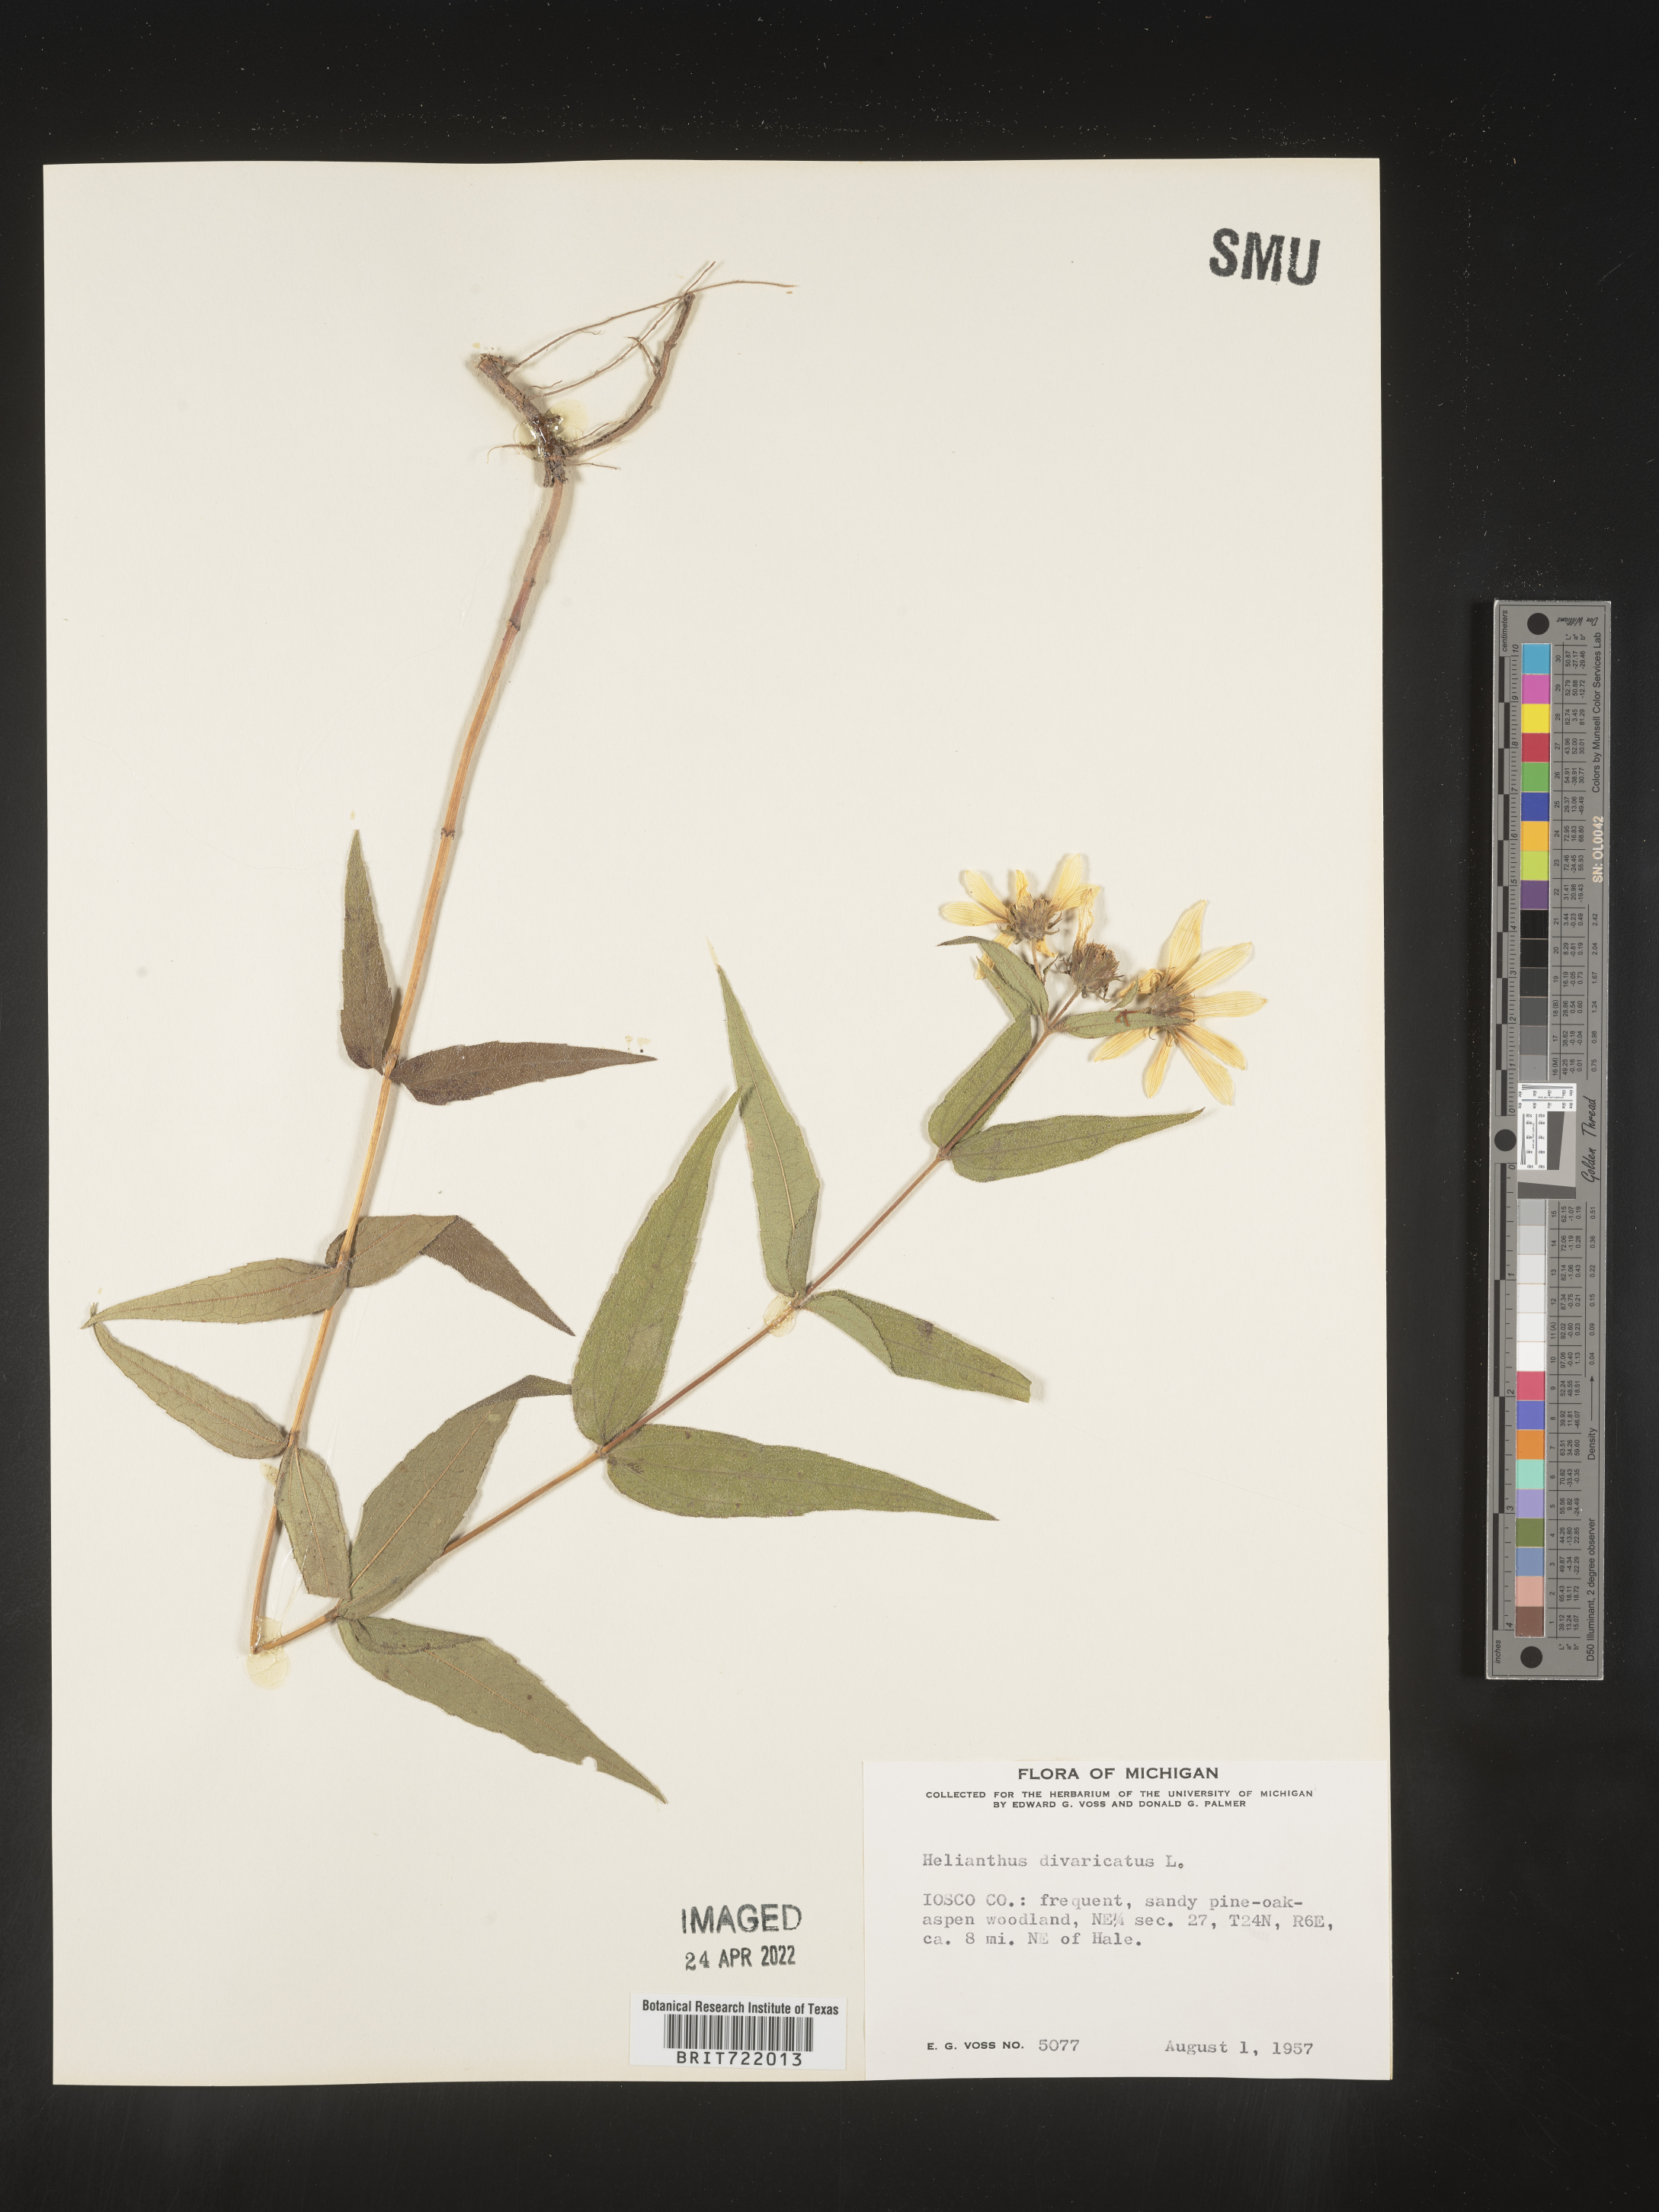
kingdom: Plantae
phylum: Tracheophyta
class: Magnoliopsida
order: Asterales
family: Asteraceae
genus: Helianthus
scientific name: Helianthus divaricatus
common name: Divergent sunflower
